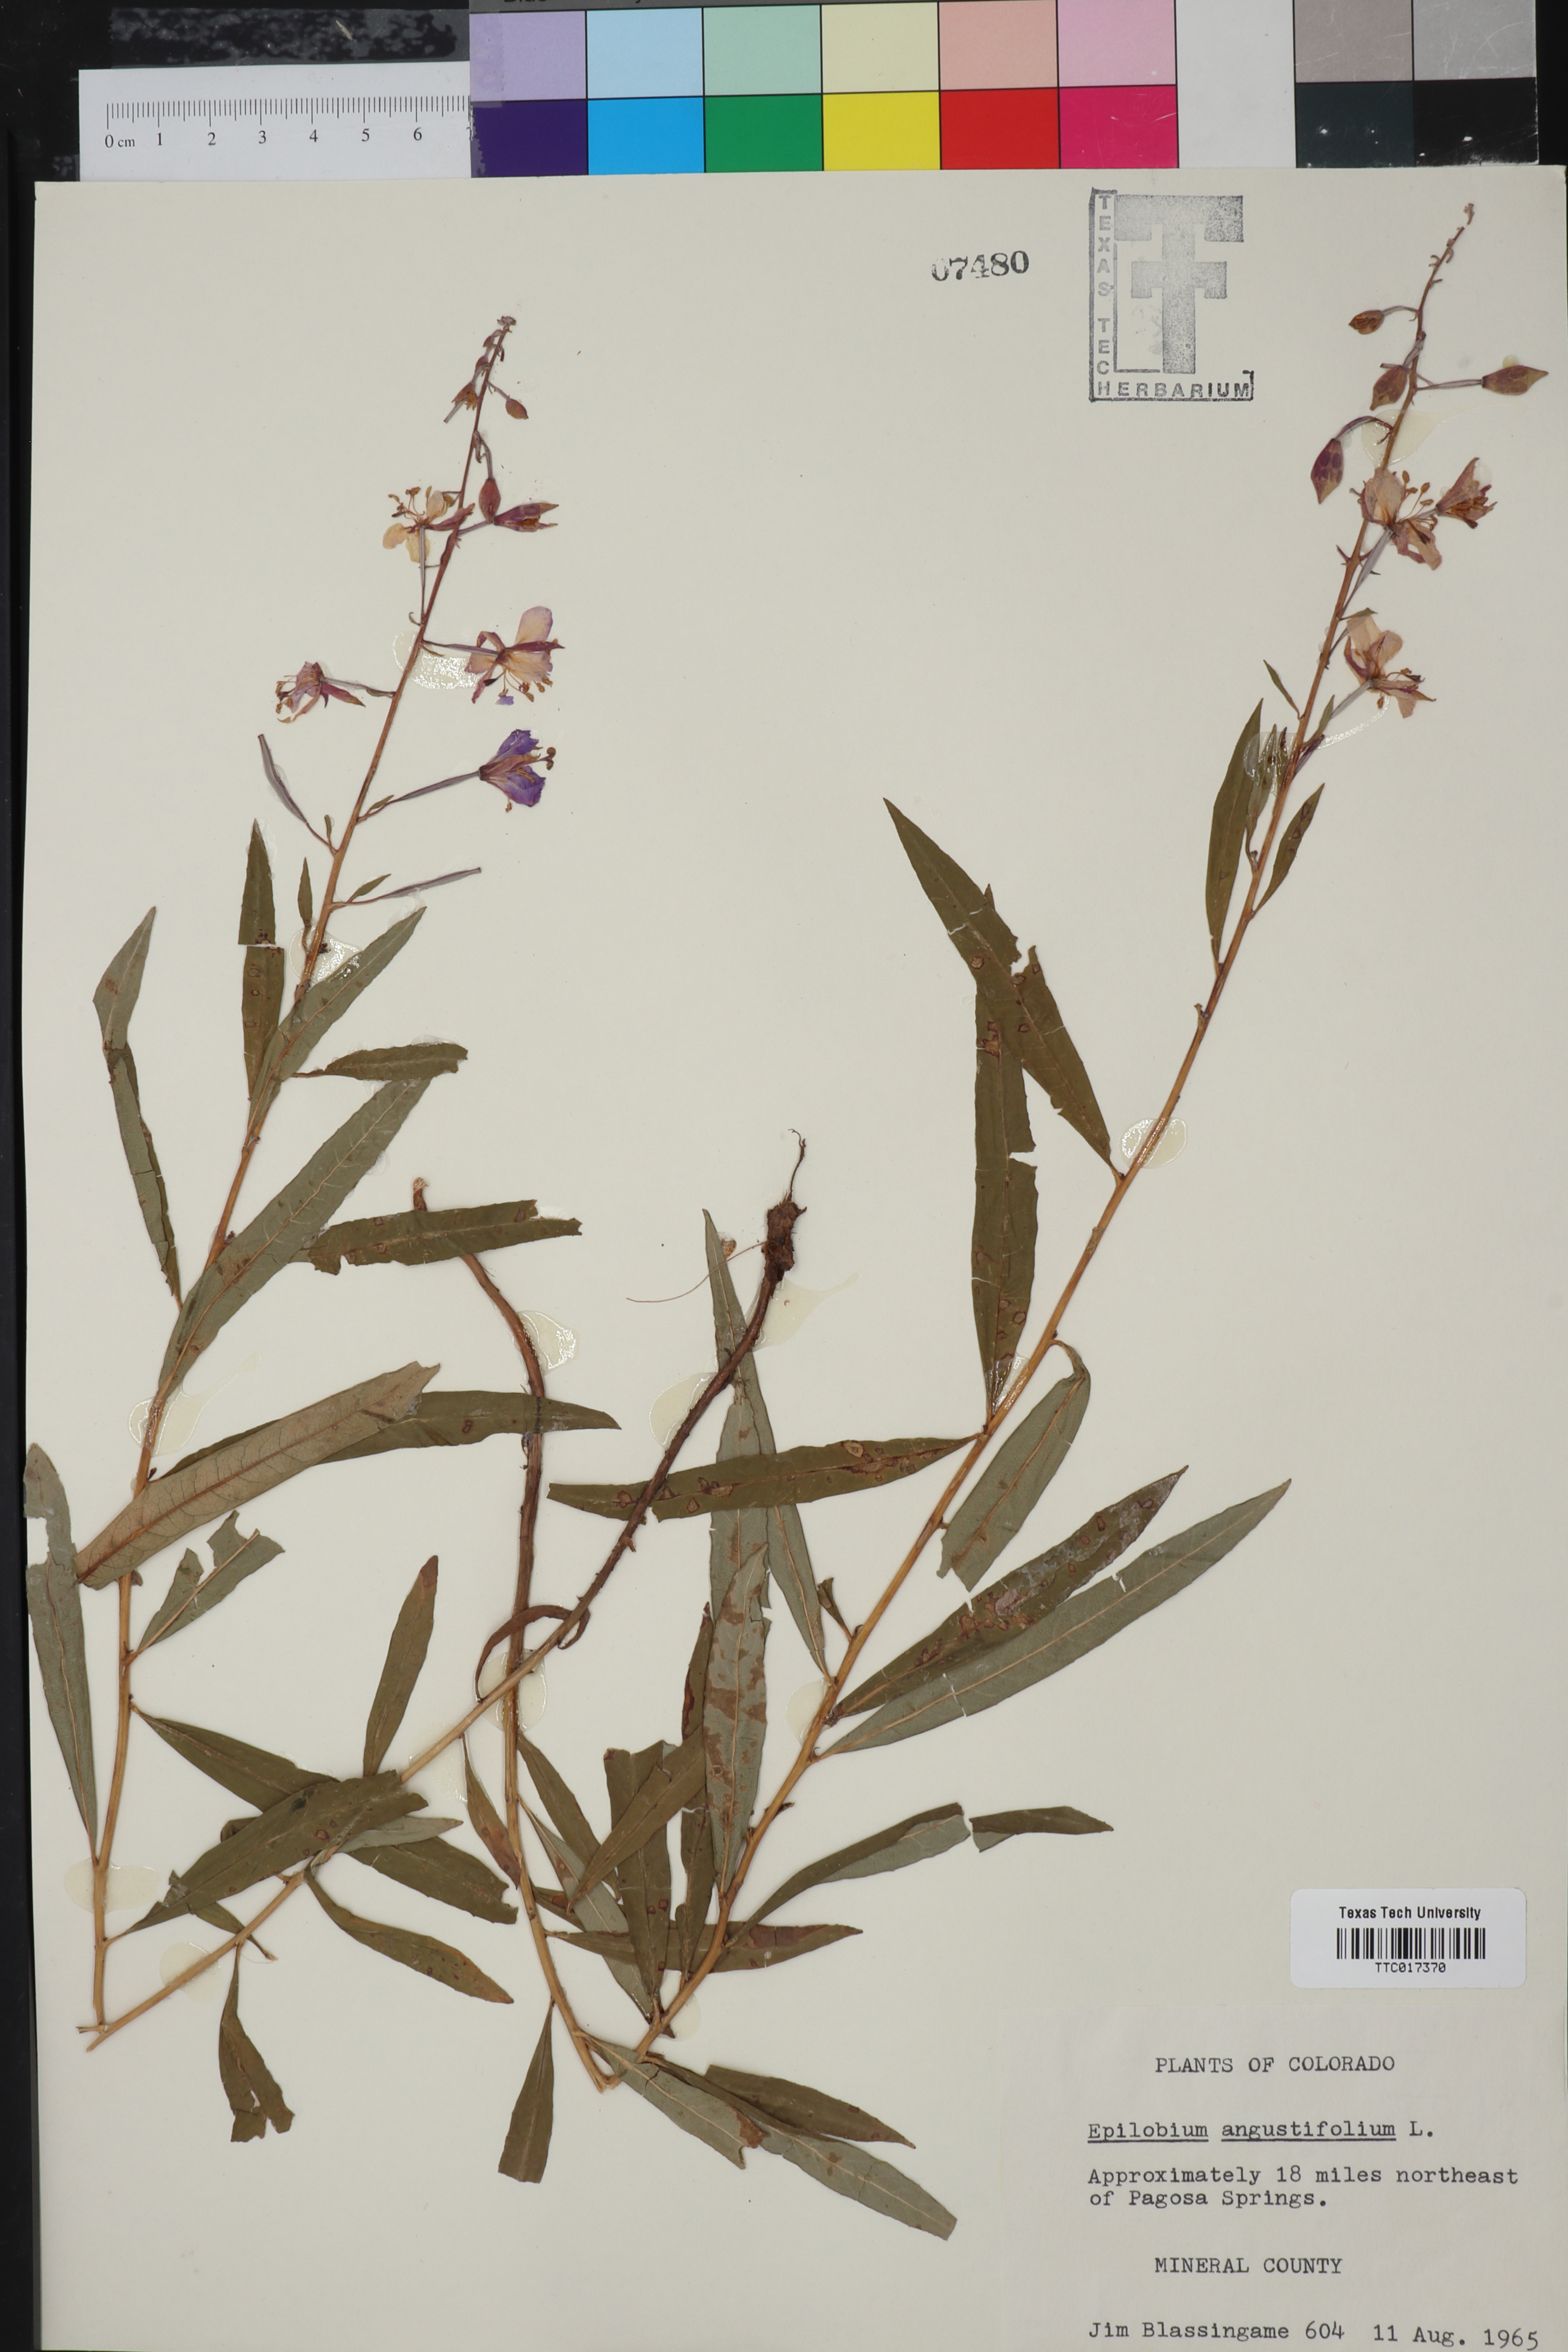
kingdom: Plantae
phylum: Tracheophyta
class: Magnoliopsida
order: Myrtales
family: Onagraceae
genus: Chamaenerion
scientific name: Chamaenerion dodonaei
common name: Rosemary-leaved willowherb
